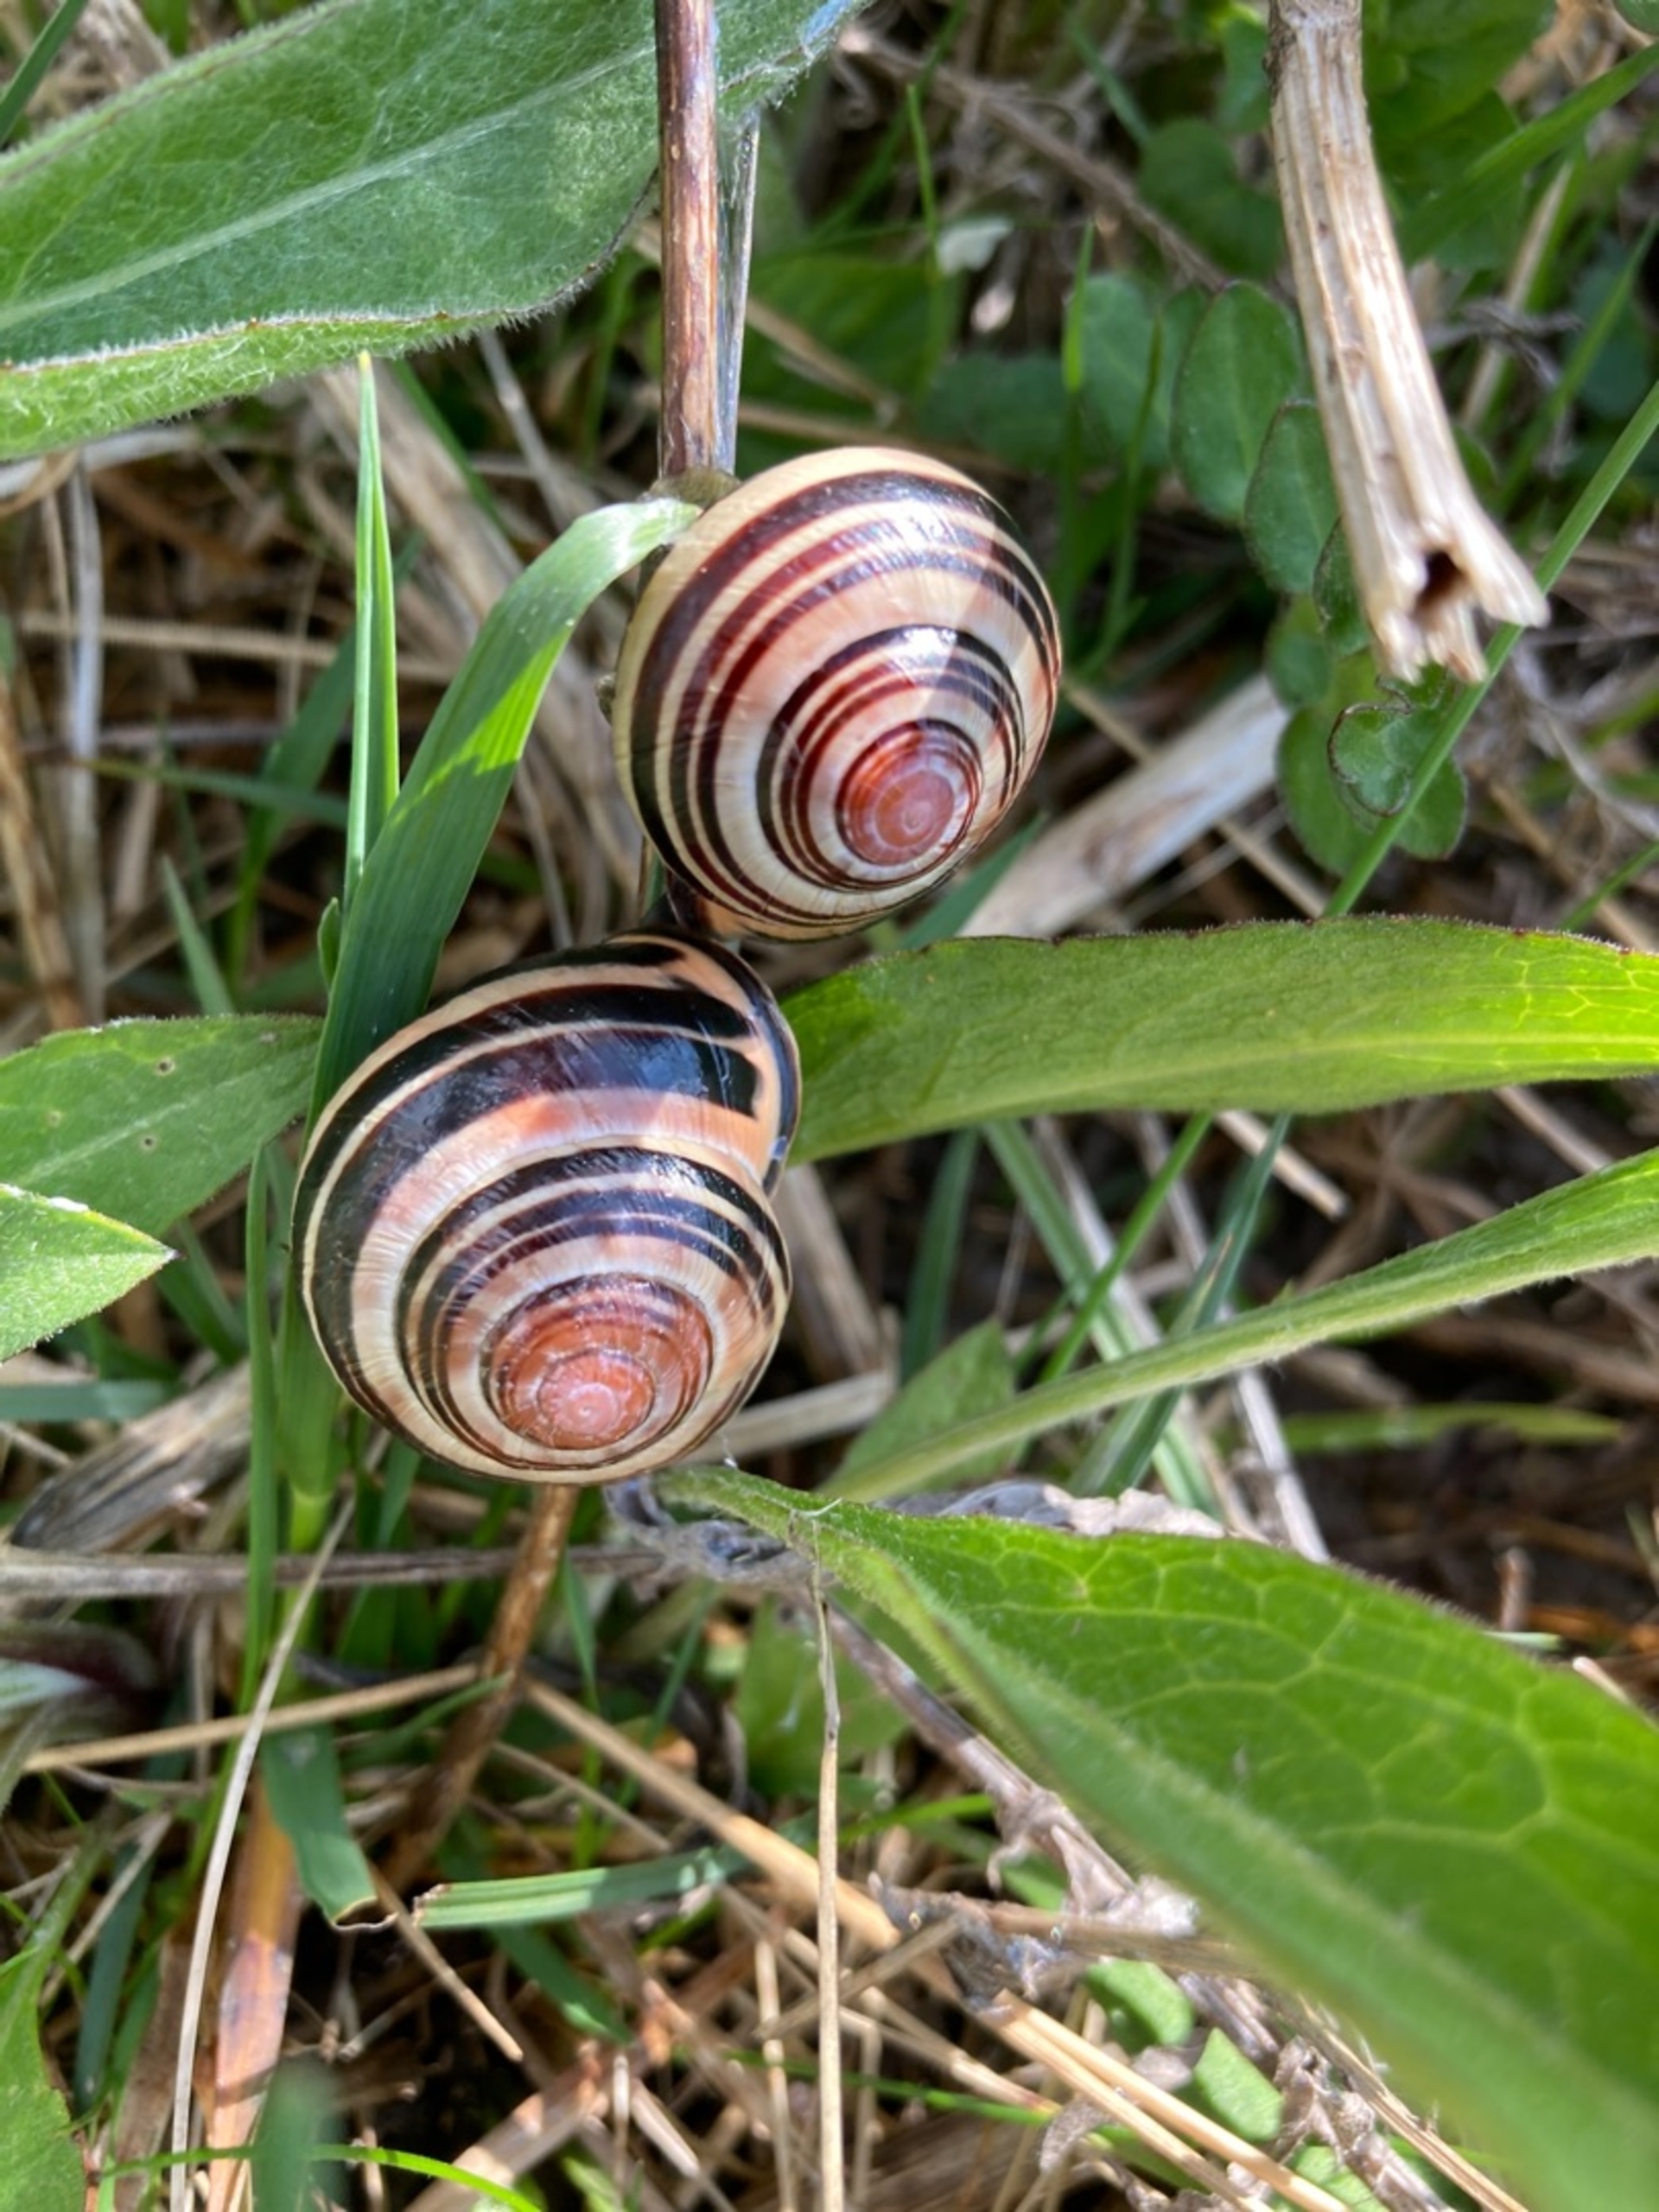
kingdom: Animalia
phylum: Mollusca
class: Gastropoda
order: Stylommatophora
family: Helicidae
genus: Cepaea
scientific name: Cepaea nemoralis
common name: Lundsnegl
